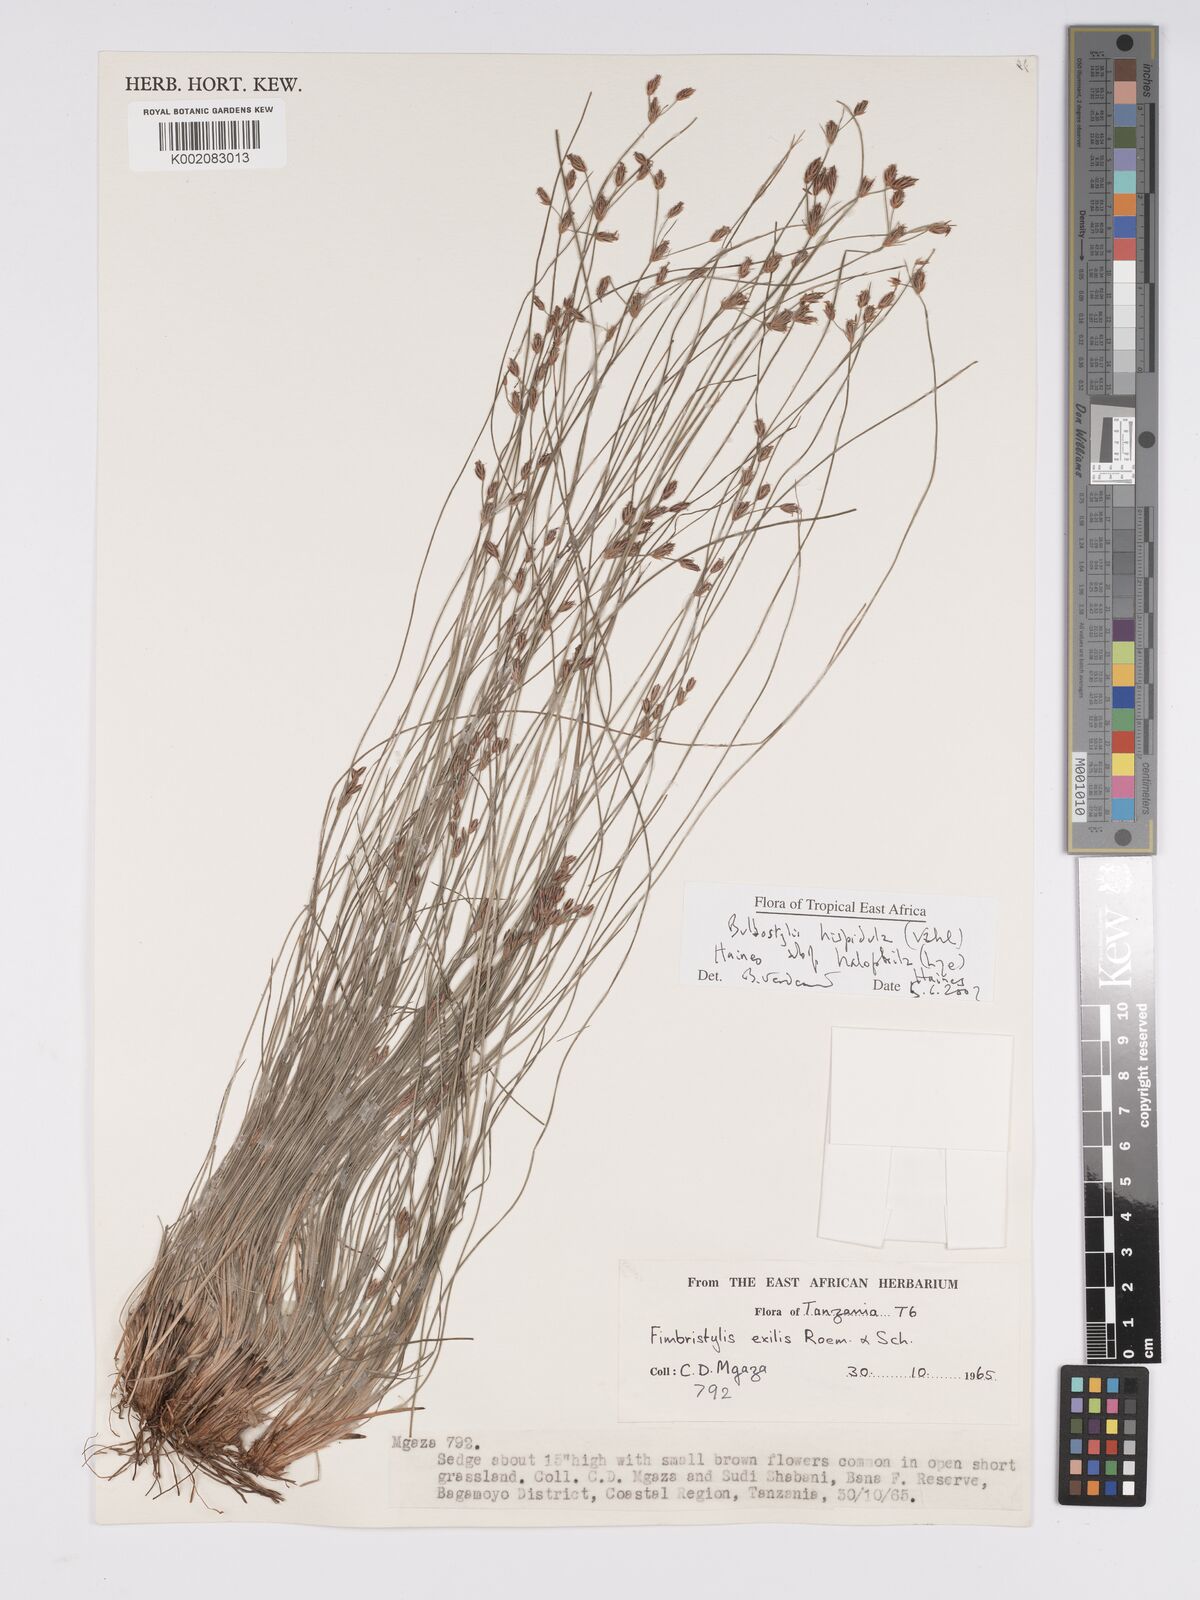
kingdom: Plantae
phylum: Tracheophyta
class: Liliopsida
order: Poales
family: Cyperaceae
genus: Bulbostylis
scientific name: Bulbostylis hispidula
